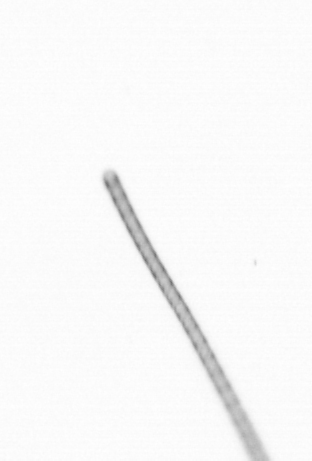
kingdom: Chromista
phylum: Ochrophyta
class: Bacillariophyceae
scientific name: Bacillariophyceae
